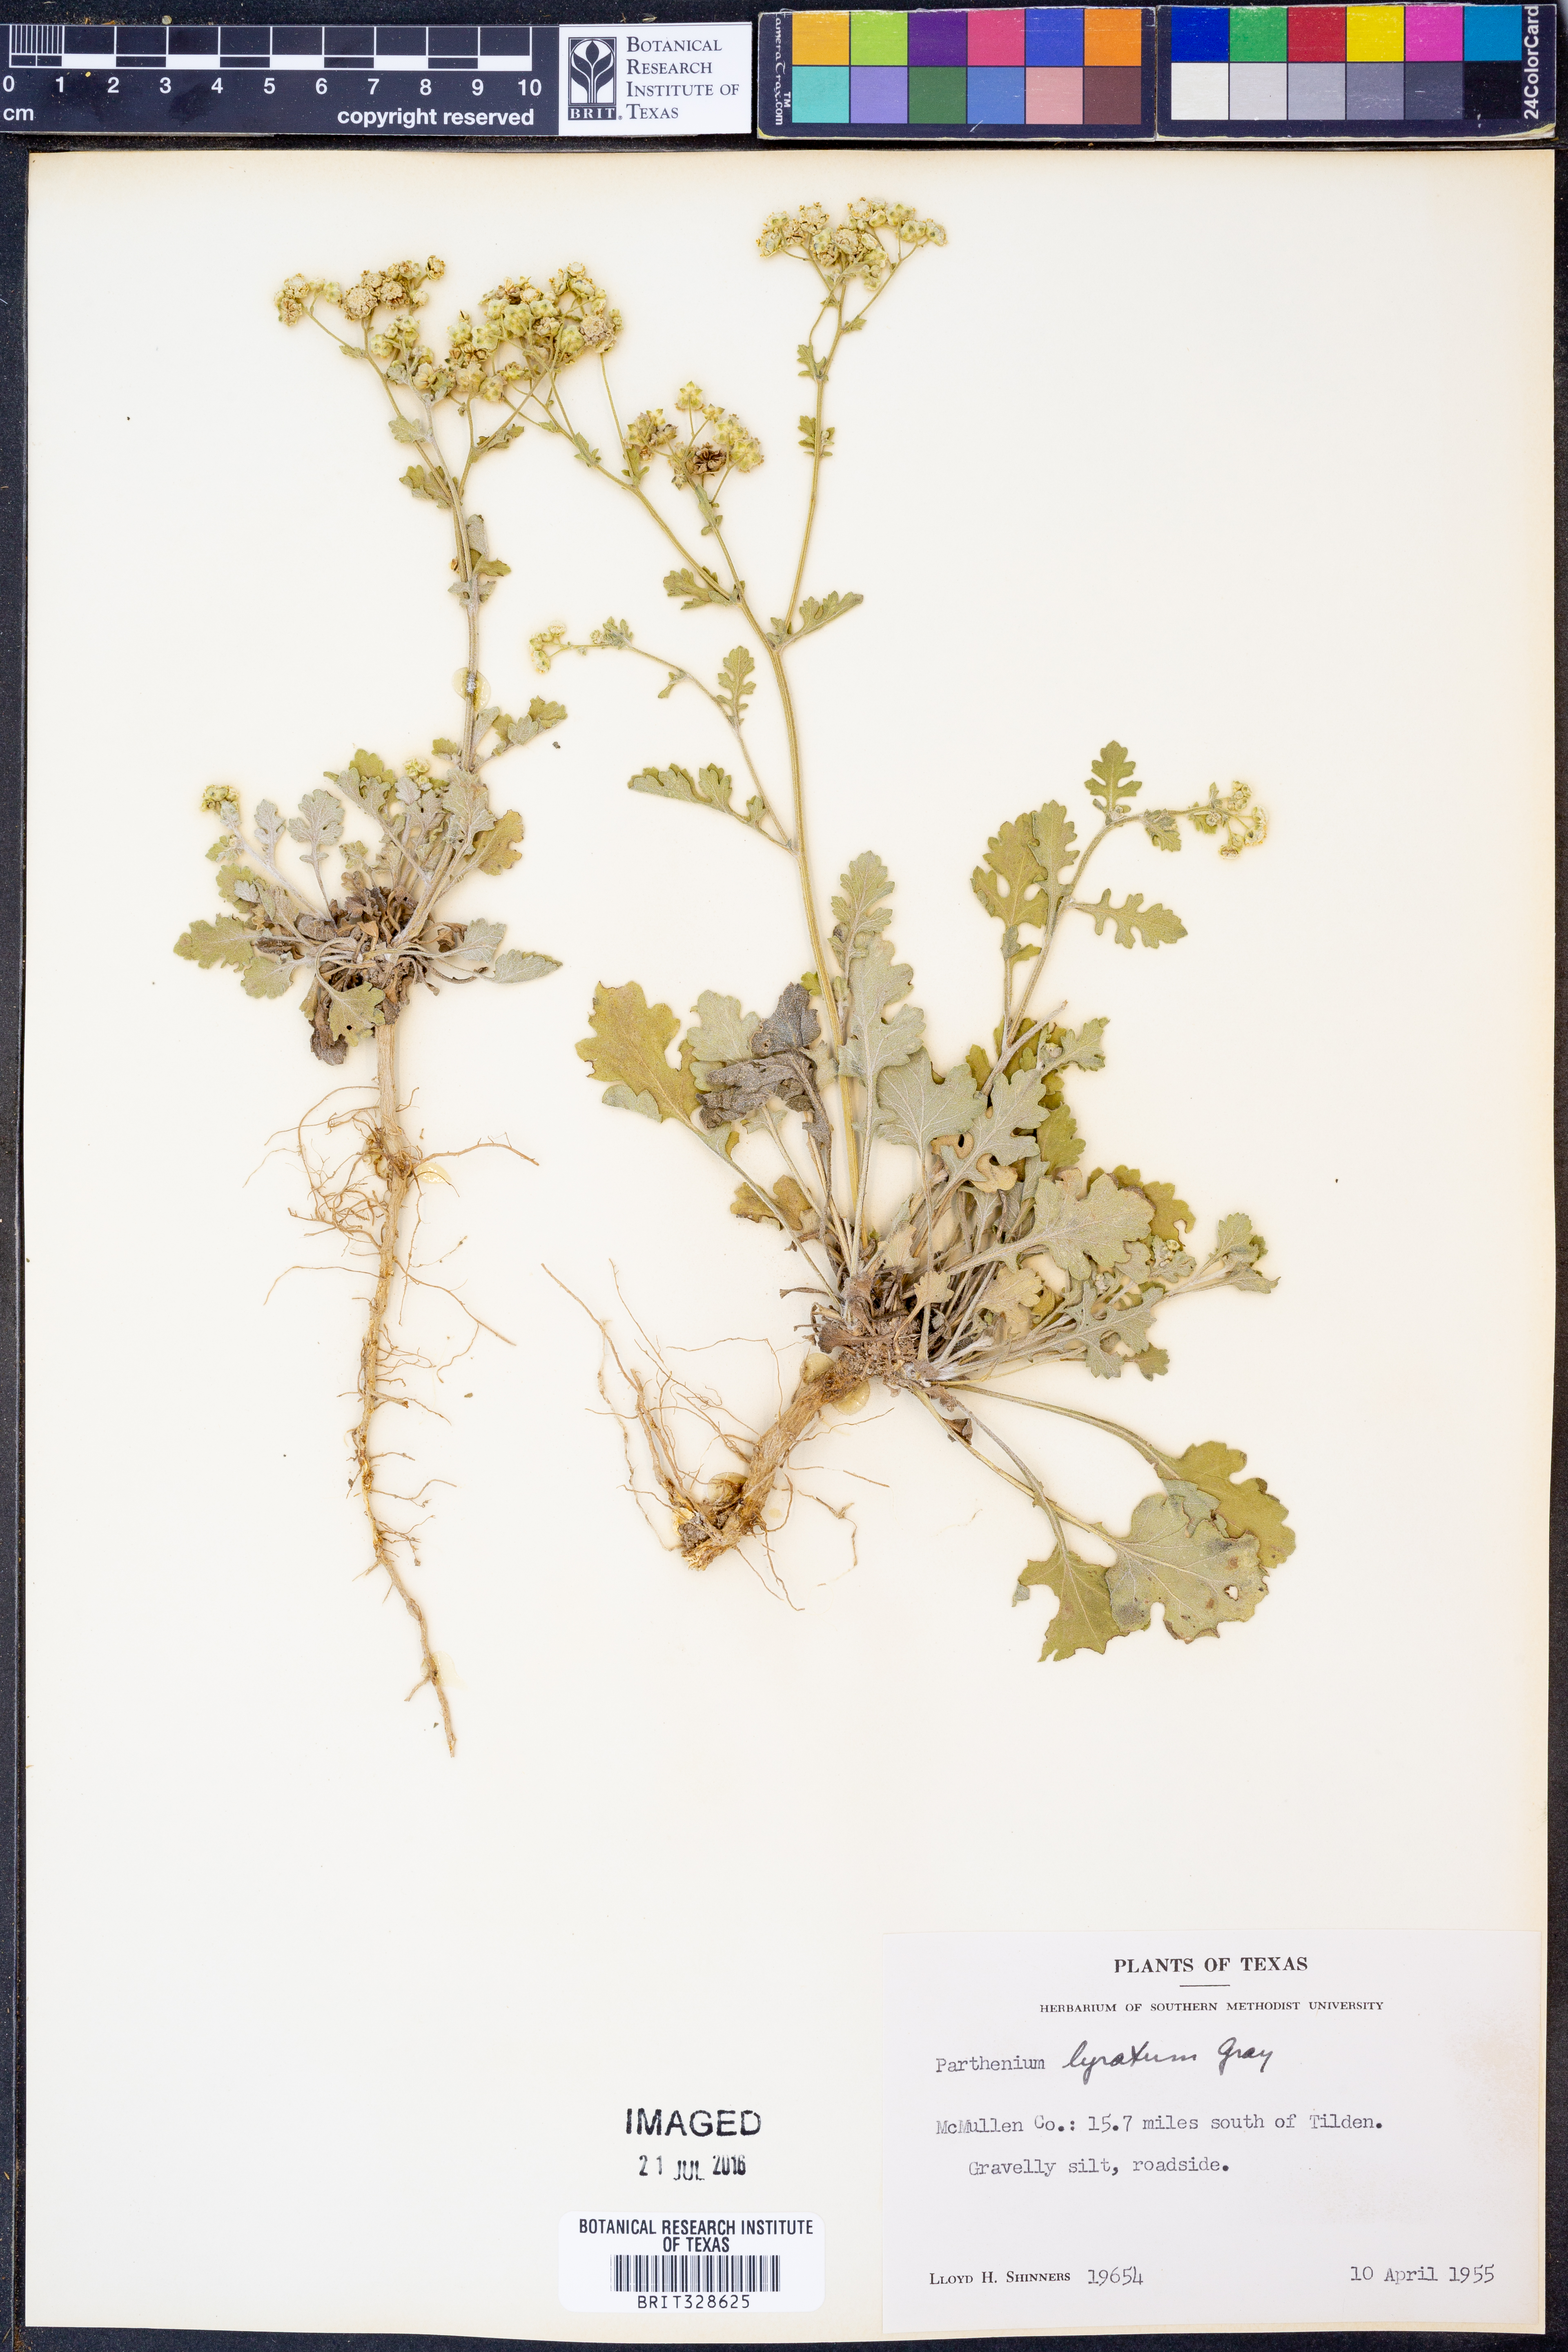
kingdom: Plantae
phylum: Tracheophyta
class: Magnoliopsida
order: Asterales
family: Asteraceae
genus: Parthenium
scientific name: Parthenium confertum
